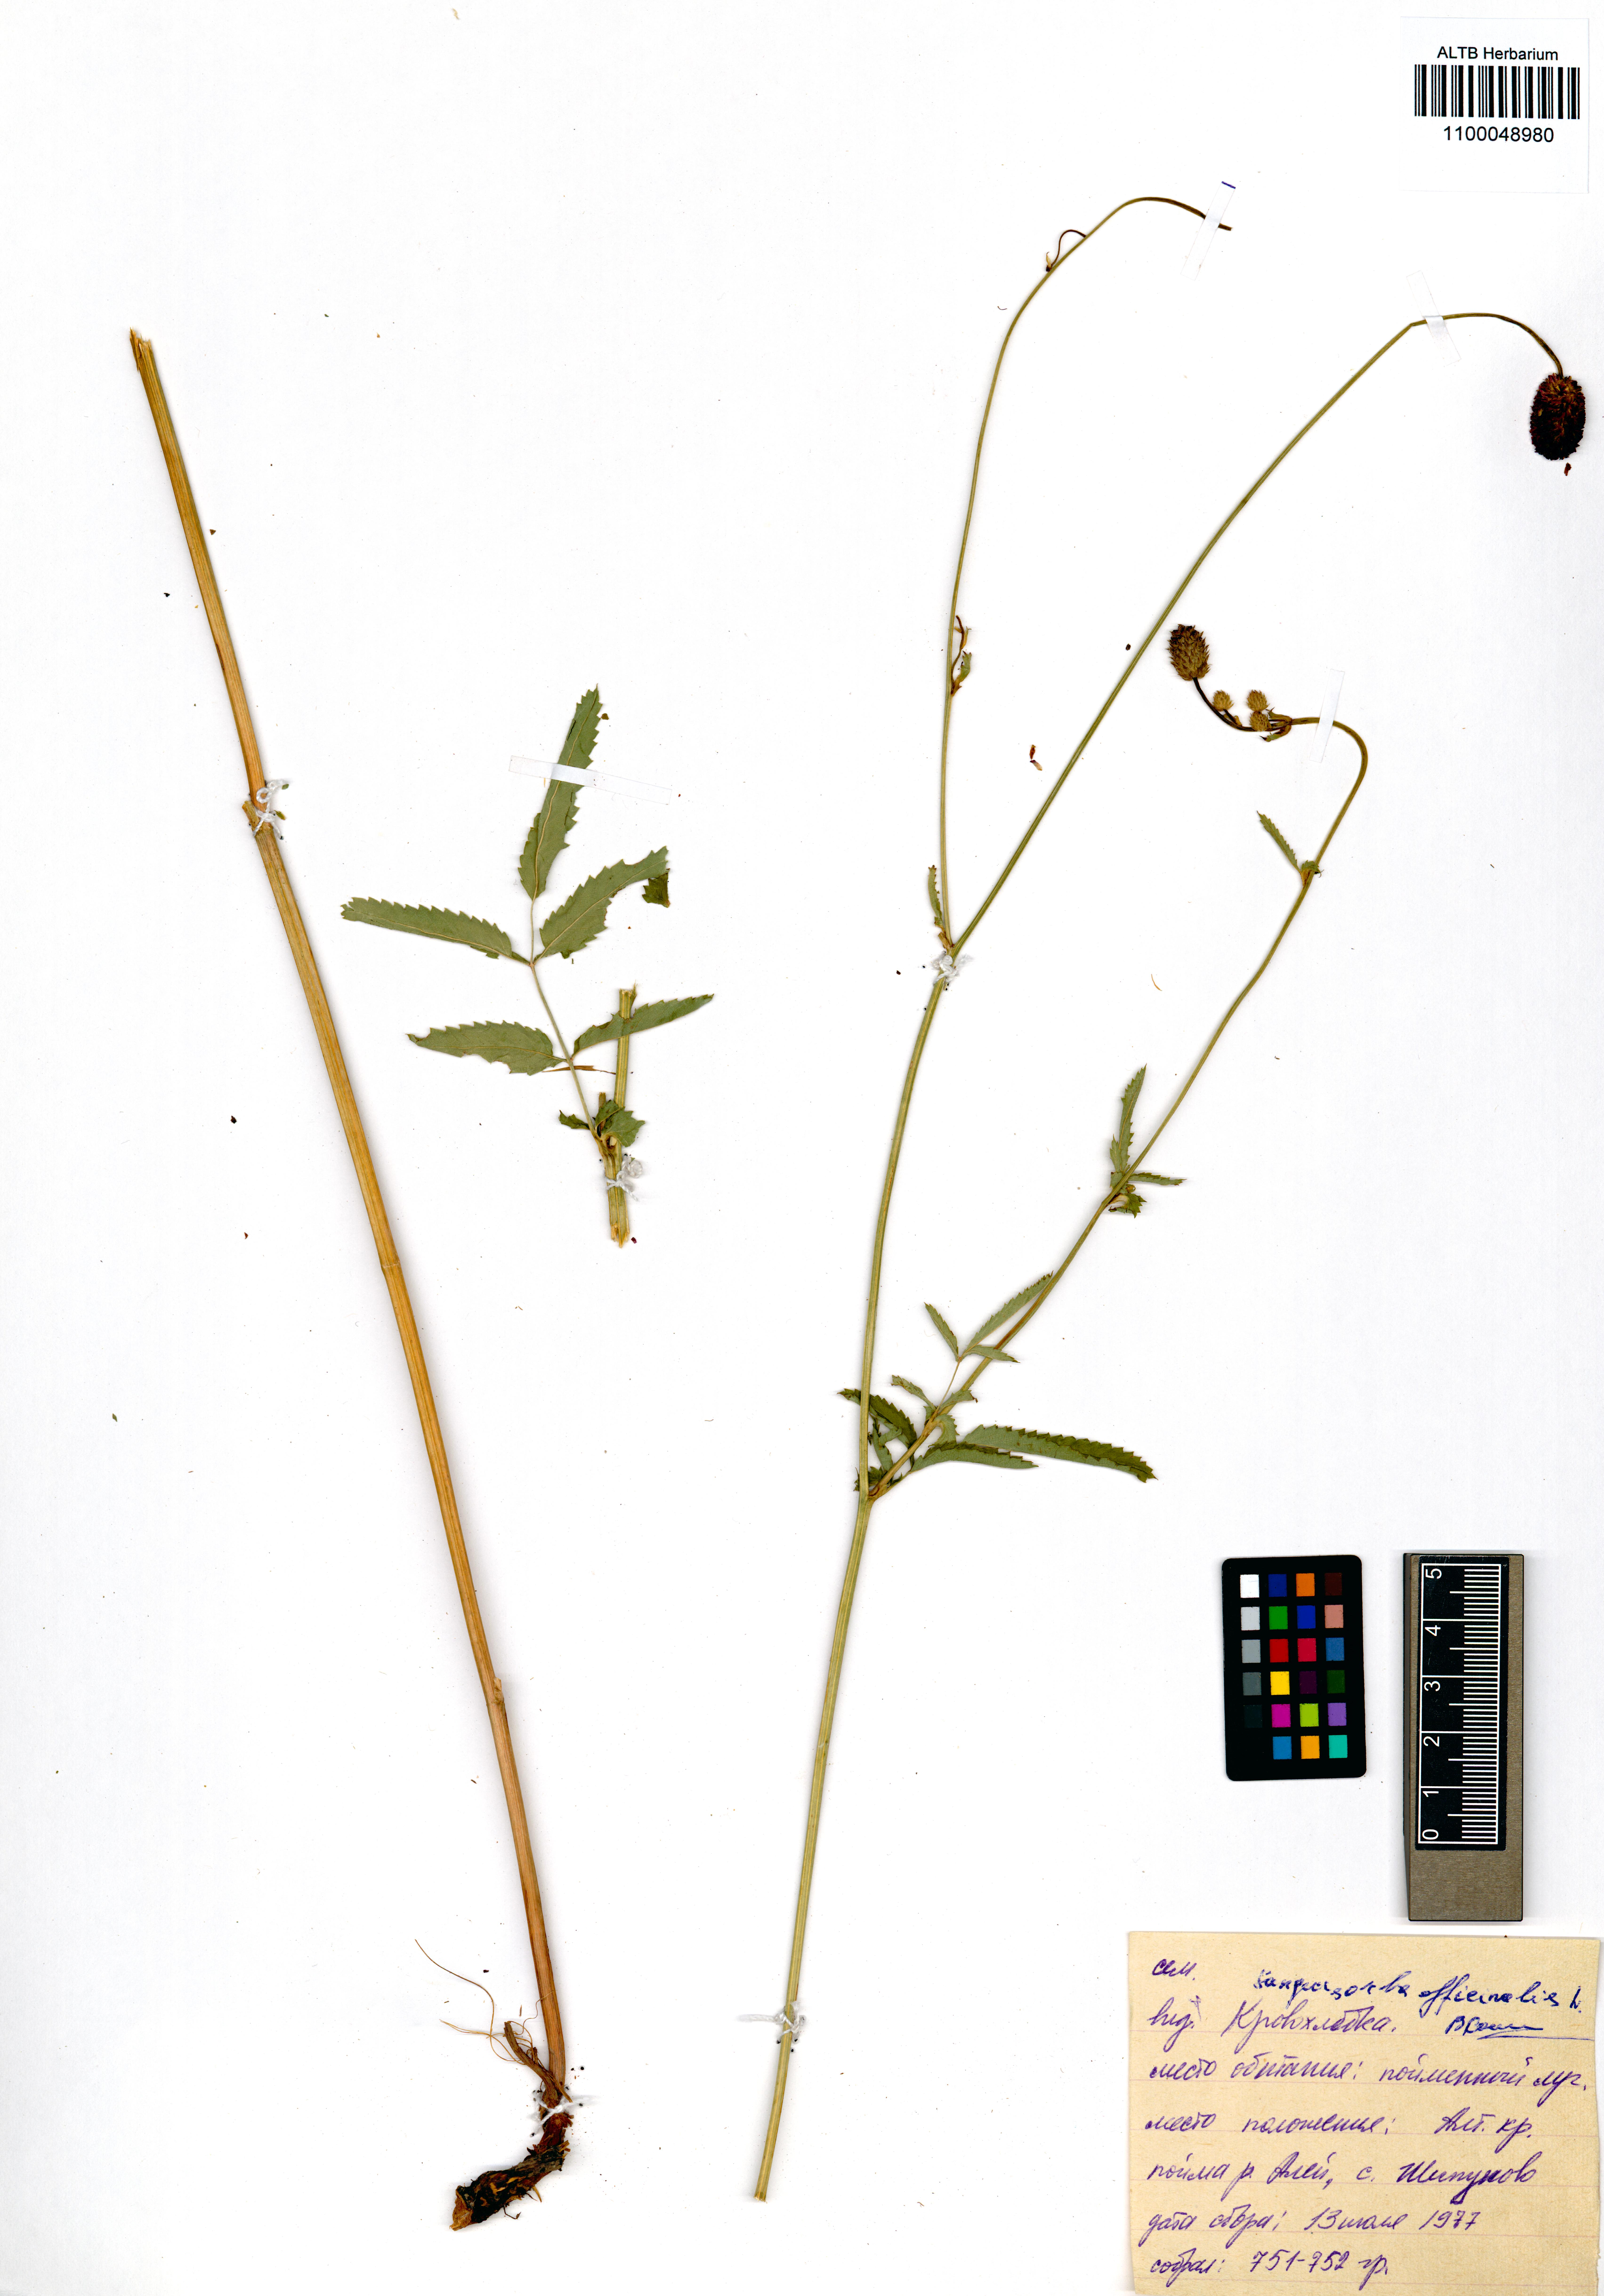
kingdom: Plantae
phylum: Tracheophyta
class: Magnoliopsida
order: Rosales
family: Rosaceae
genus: Sanguisorba
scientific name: Sanguisorba officinalis
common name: Great burnet
